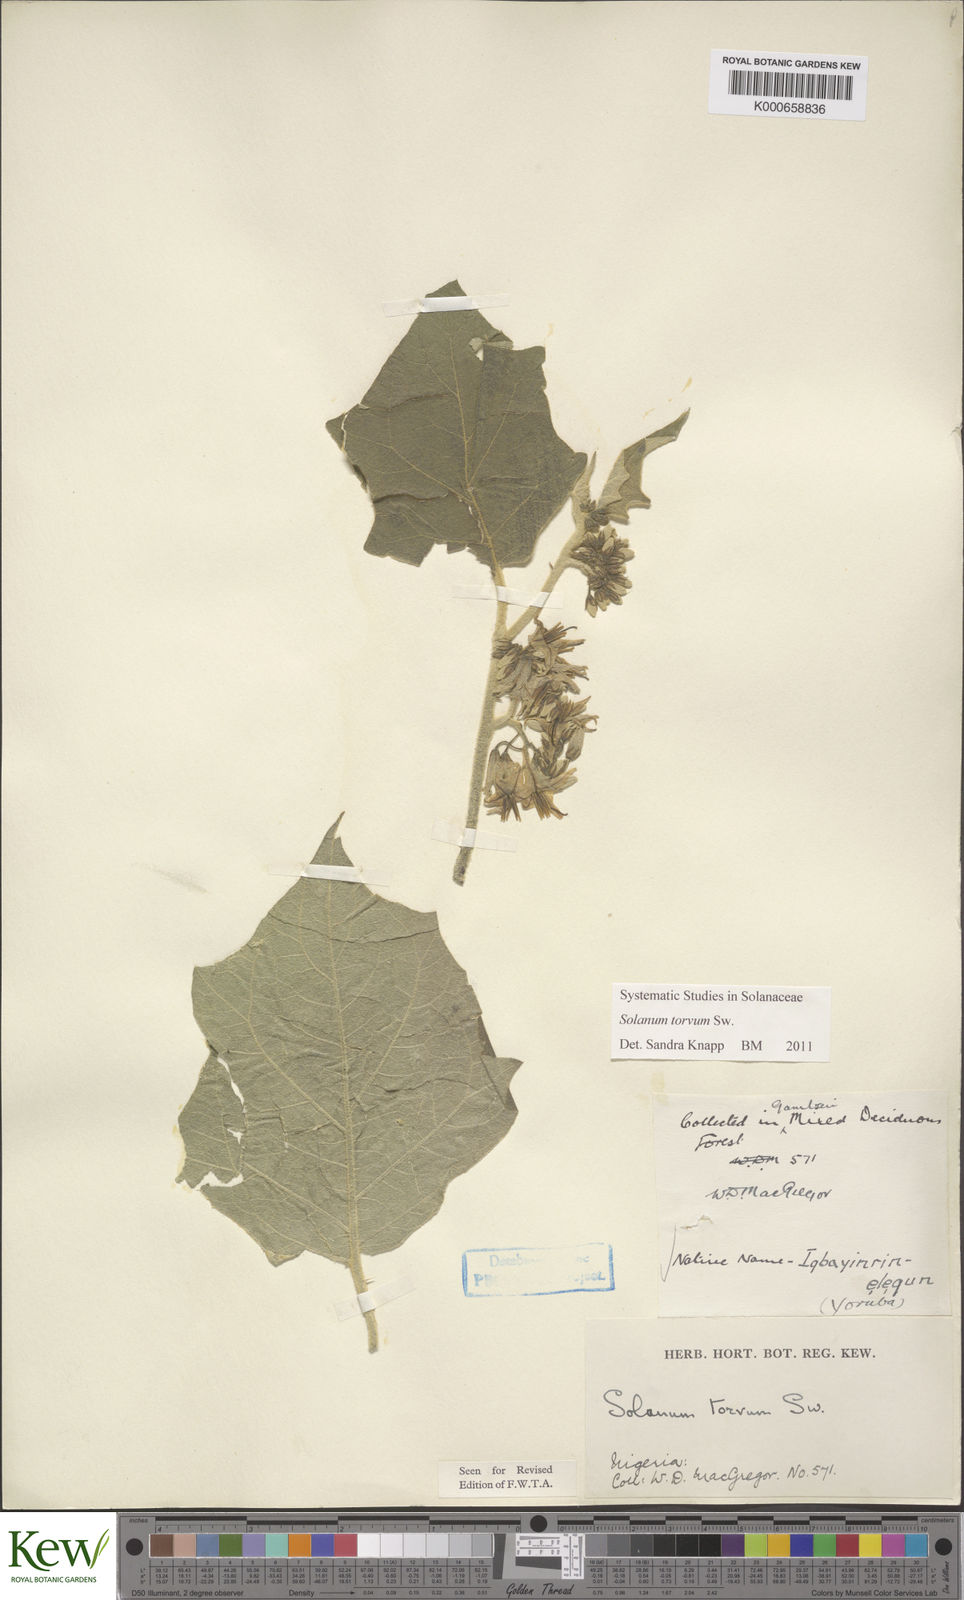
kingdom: Plantae
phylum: Tracheophyta
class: Magnoliopsida
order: Solanales
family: Solanaceae
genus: Solanum
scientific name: Solanum torvum
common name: Turkey berry
